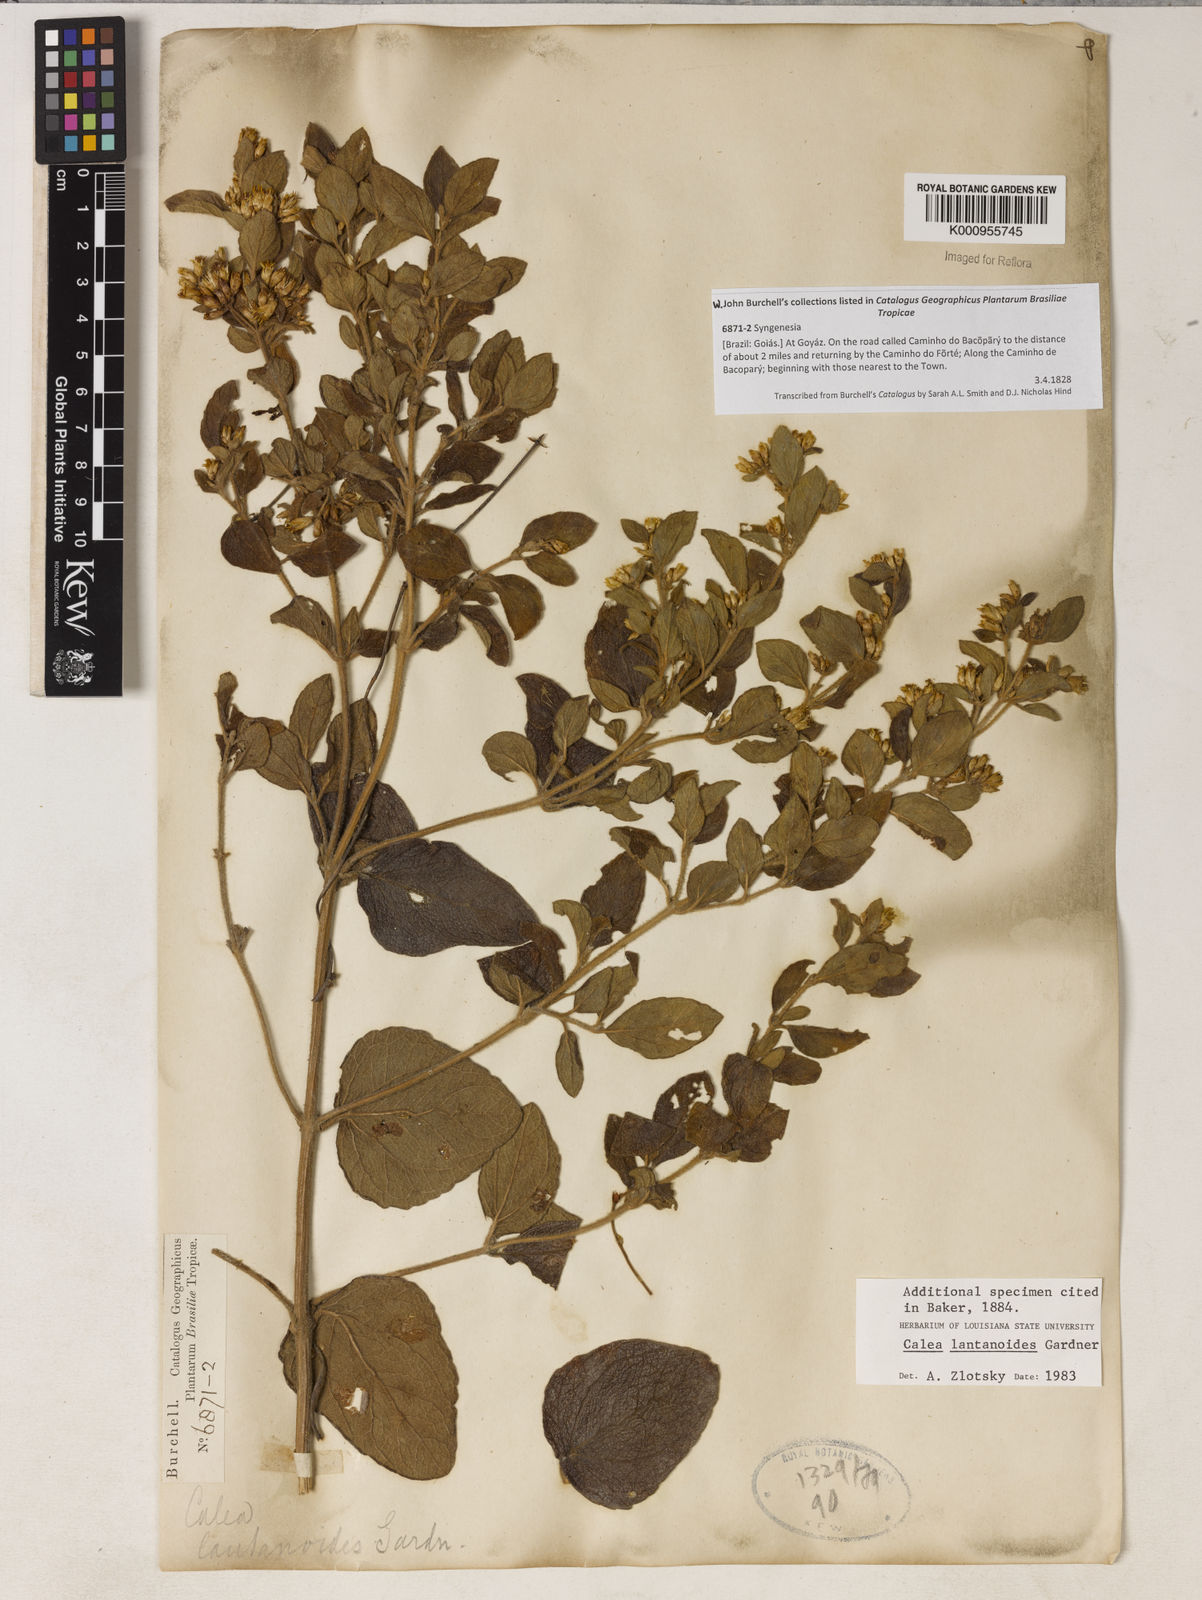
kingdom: Plantae
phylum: Tracheophyta
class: Magnoliopsida
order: Asterales
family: Asteraceae
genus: Calea
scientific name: Calea lantanoides
